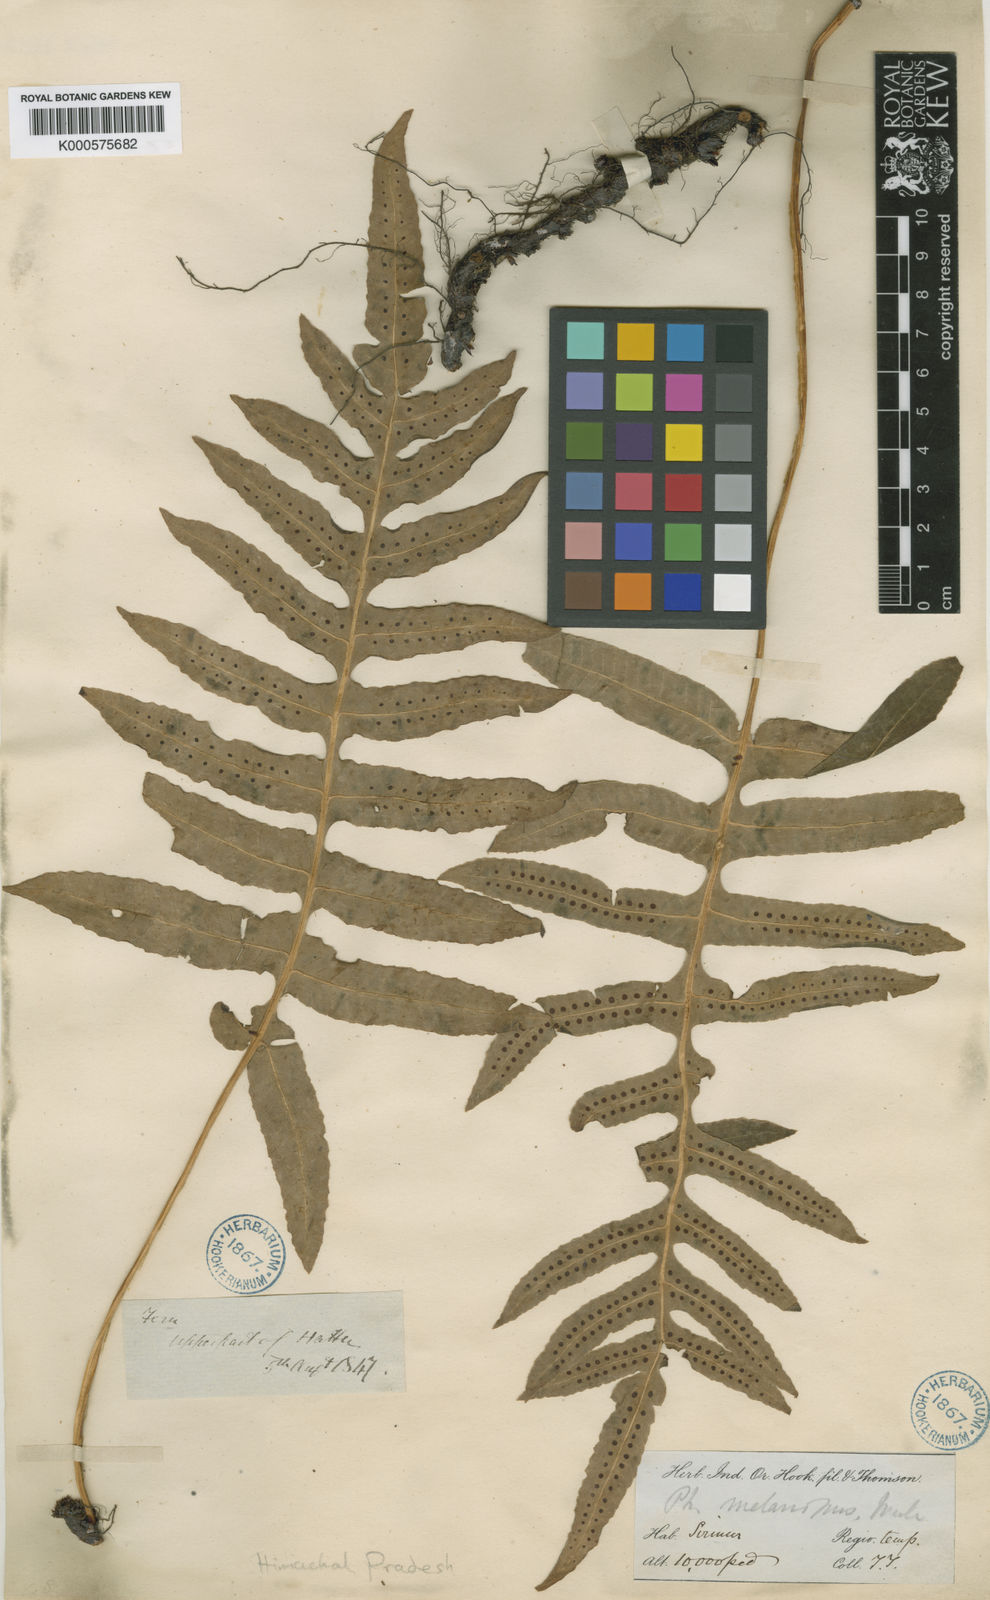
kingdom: Plantae
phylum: Tracheophyta
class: Polypodiopsida
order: Polypodiales
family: Polypodiaceae
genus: Selliguea
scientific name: Selliguea ebenipes
